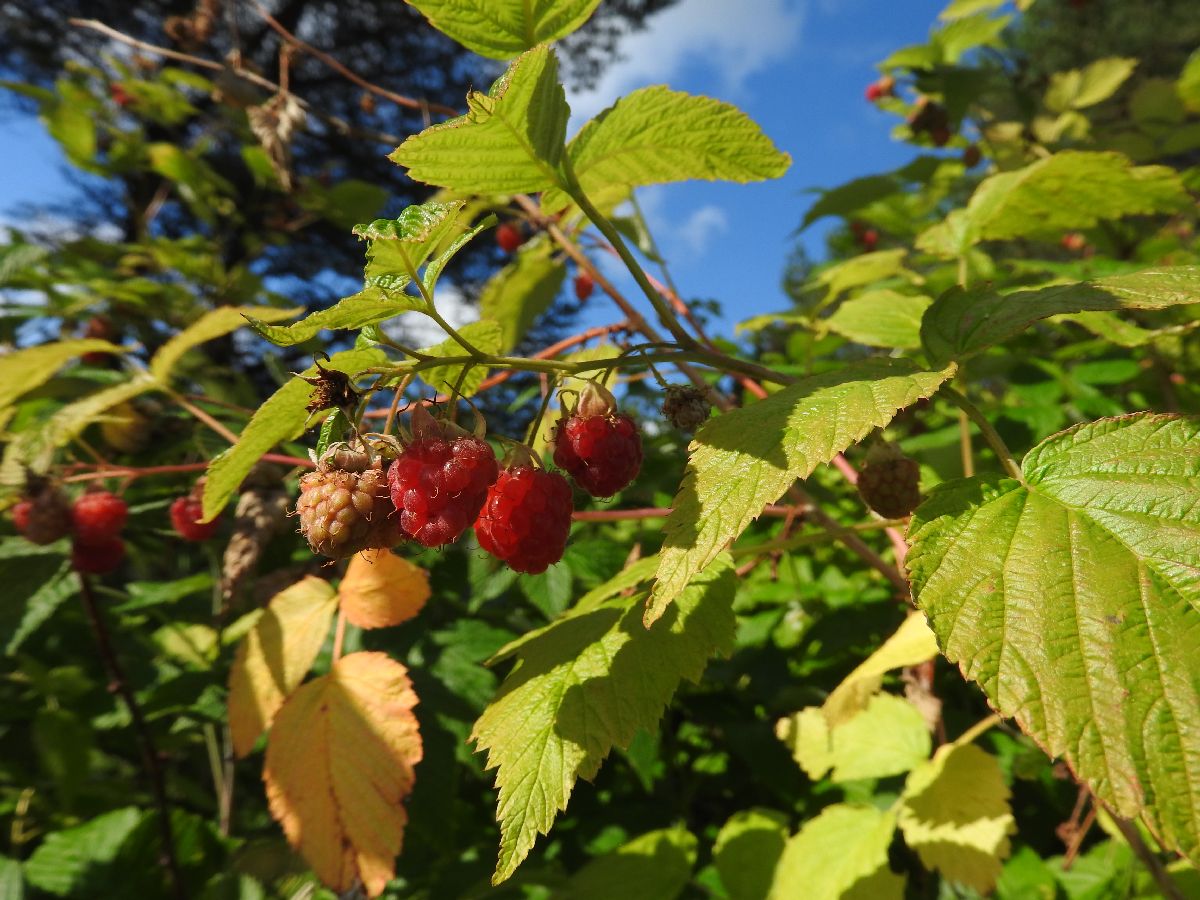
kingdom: Plantae
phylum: Tracheophyta
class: Magnoliopsida
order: Rosales
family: Rosaceae
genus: Rubus
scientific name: Rubus idaeus
